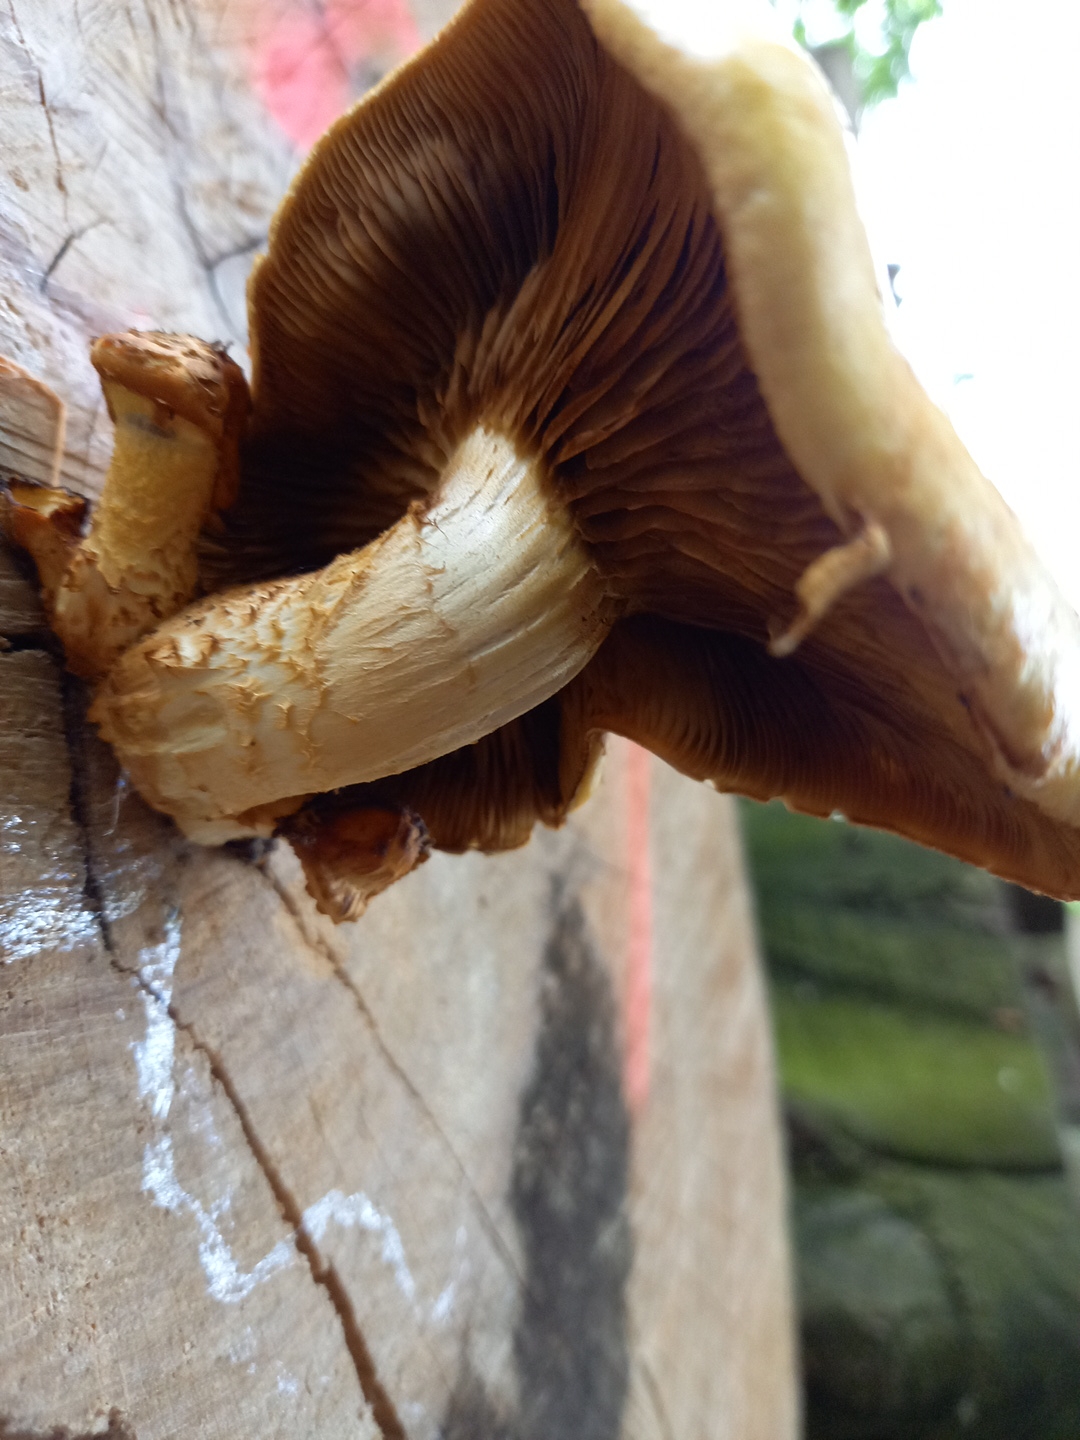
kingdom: Fungi
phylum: Basidiomycota
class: Agaricomycetes
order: Agaricales
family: Strophariaceae
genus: Pholiota
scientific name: Pholiota adiposa
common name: højtsiddende skælhat
